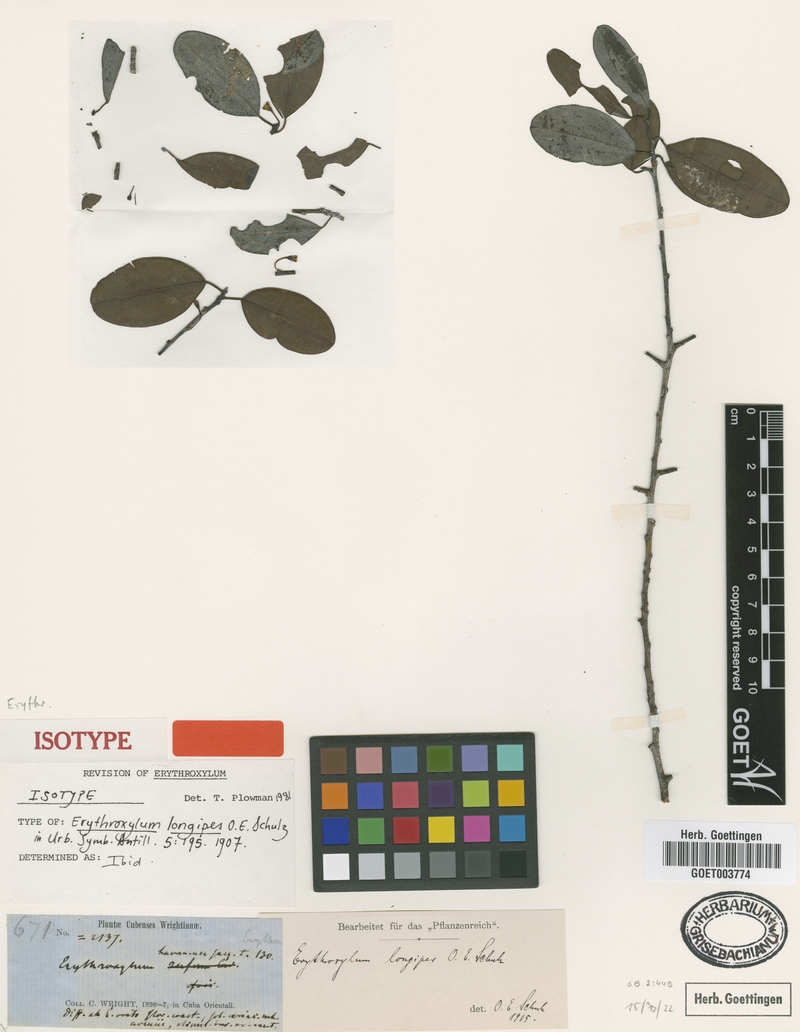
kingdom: Plantae
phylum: Tracheophyta
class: Magnoliopsida
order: Malpighiales
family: Erythroxylaceae
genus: Erythroxylum
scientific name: Erythroxylum longipes
